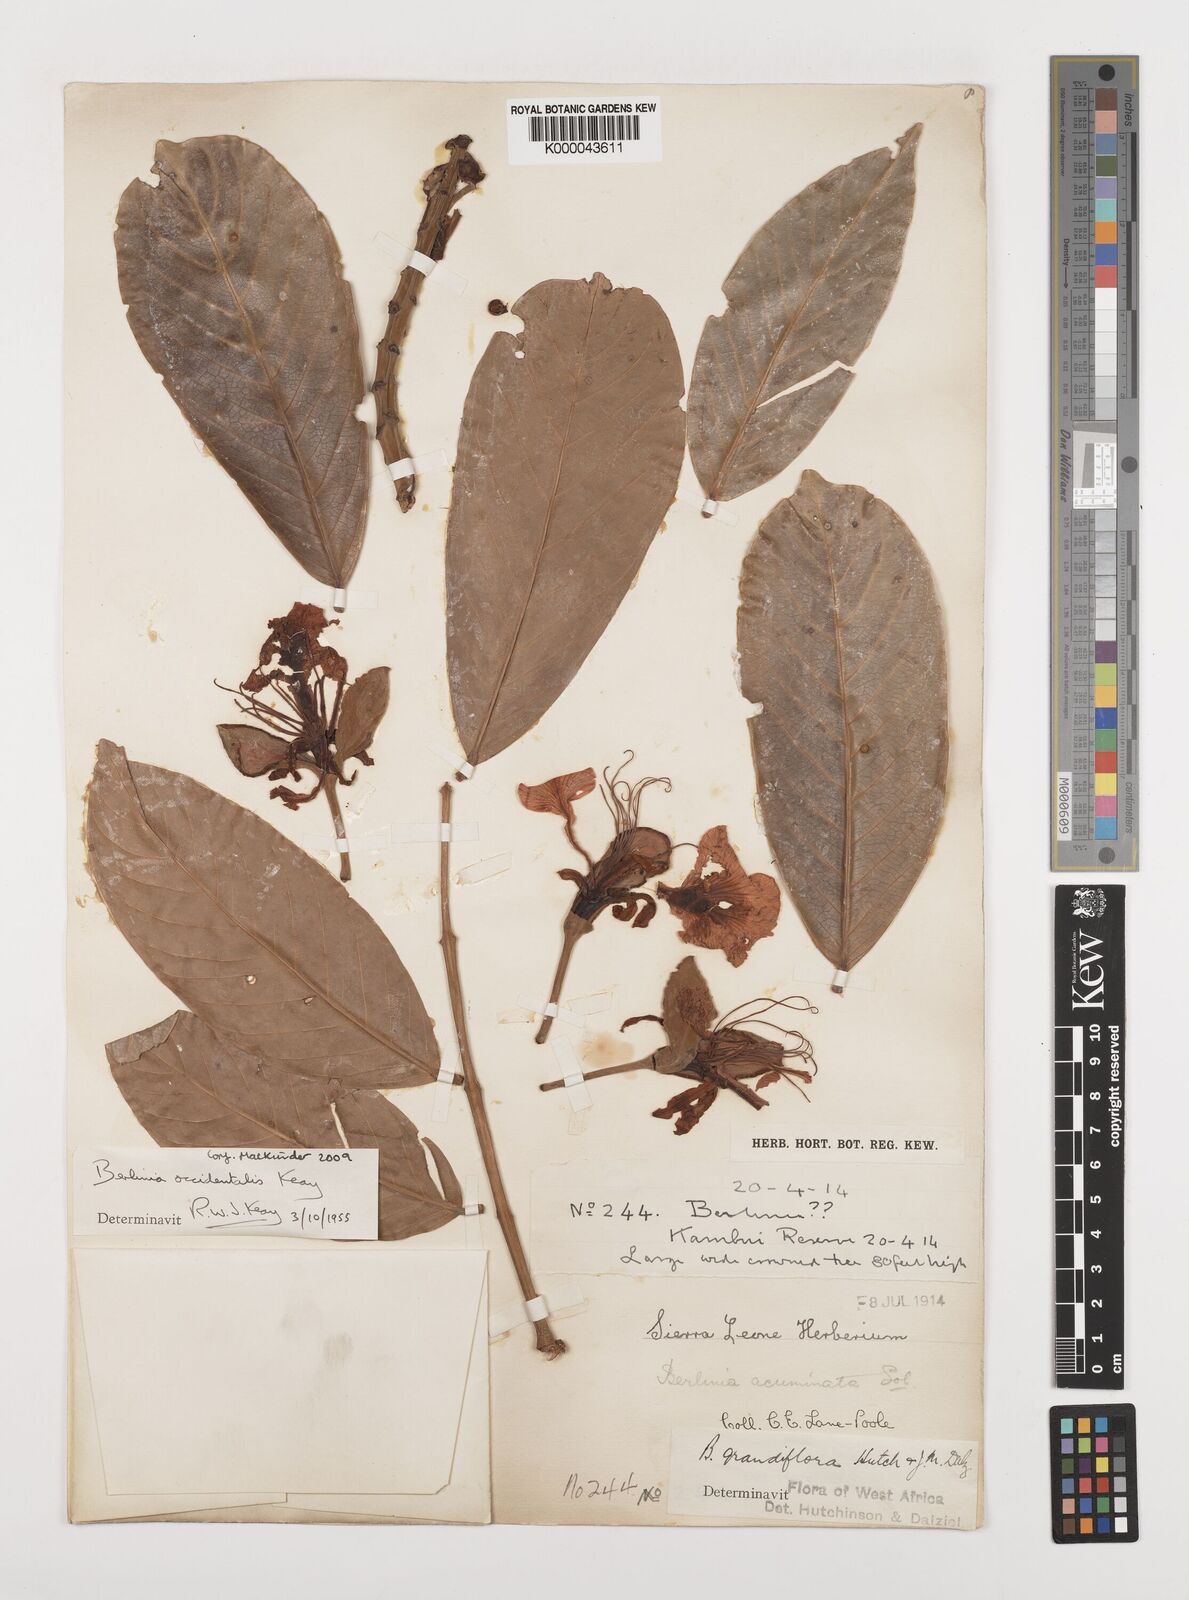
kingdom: Plantae
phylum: Tracheophyta
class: Magnoliopsida
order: Fabales
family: Fabaceae
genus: Berlinia
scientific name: Berlinia occidentalis
